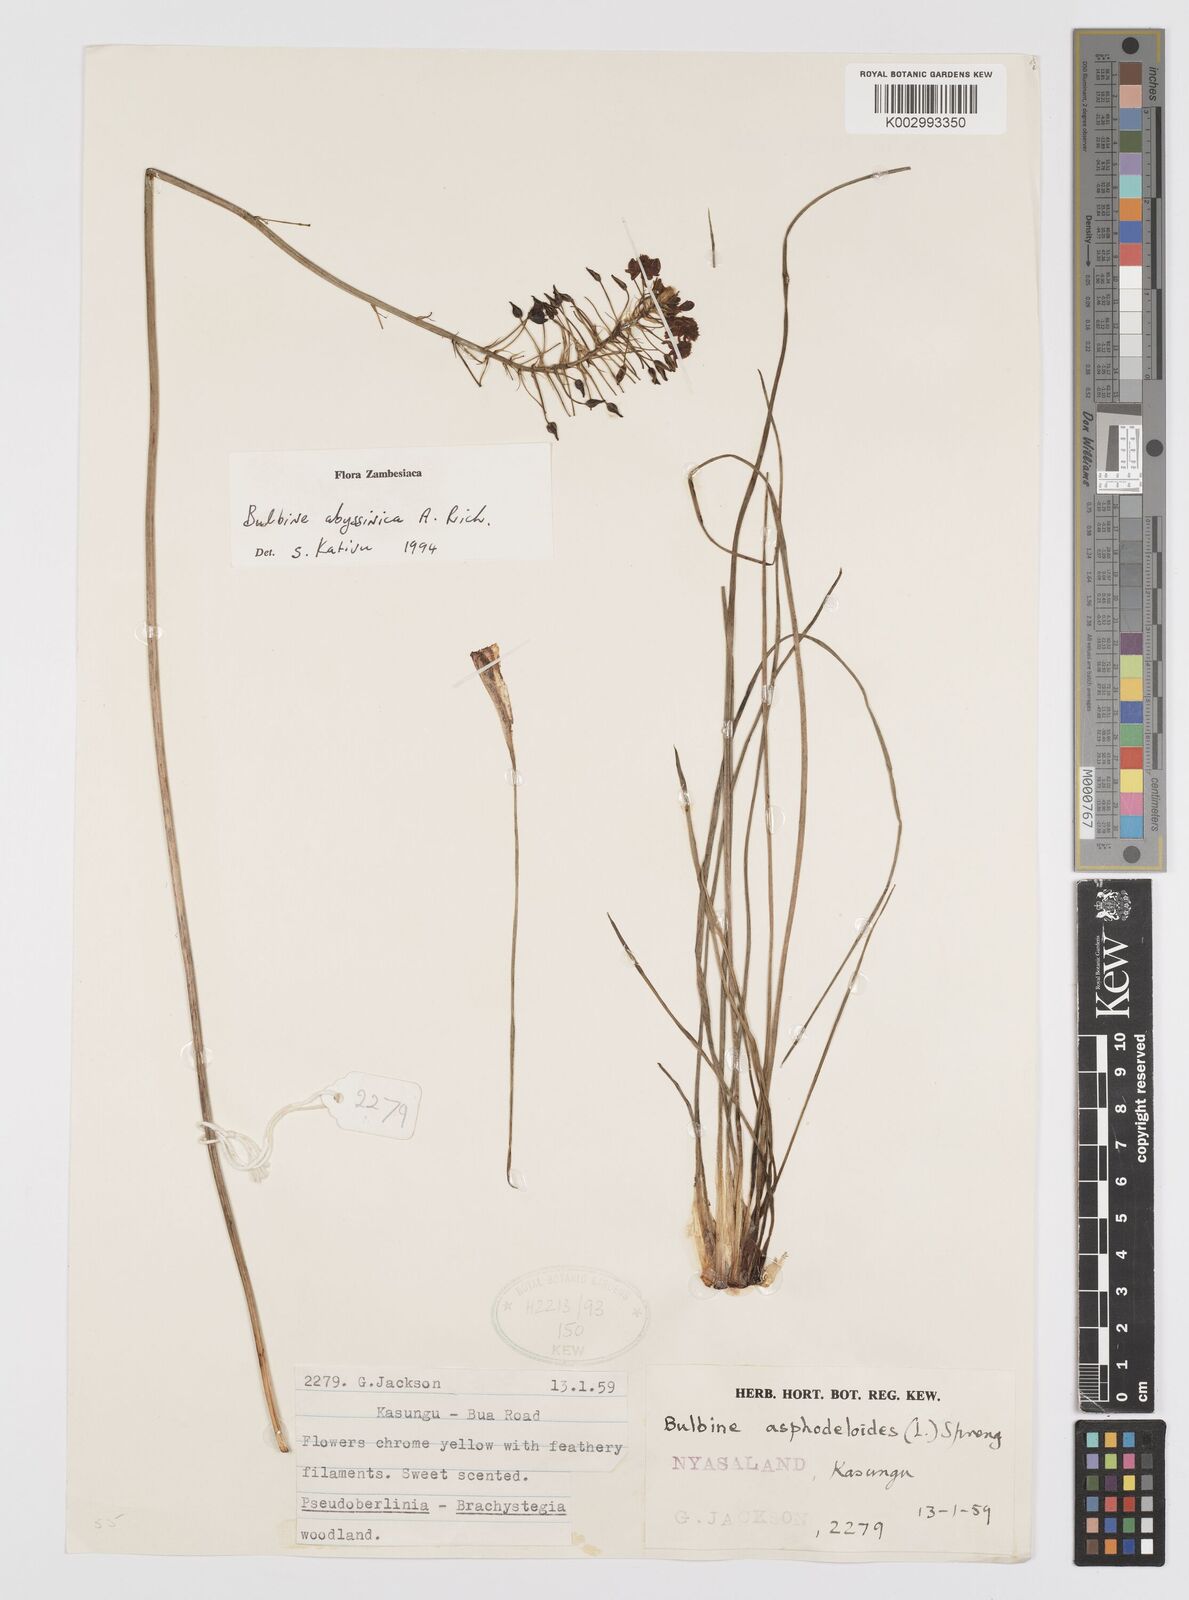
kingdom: Plantae
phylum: Tracheophyta
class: Liliopsida
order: Asparagales
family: Asphodelaceae
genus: Bulbine
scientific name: Bulbine abyssinica
